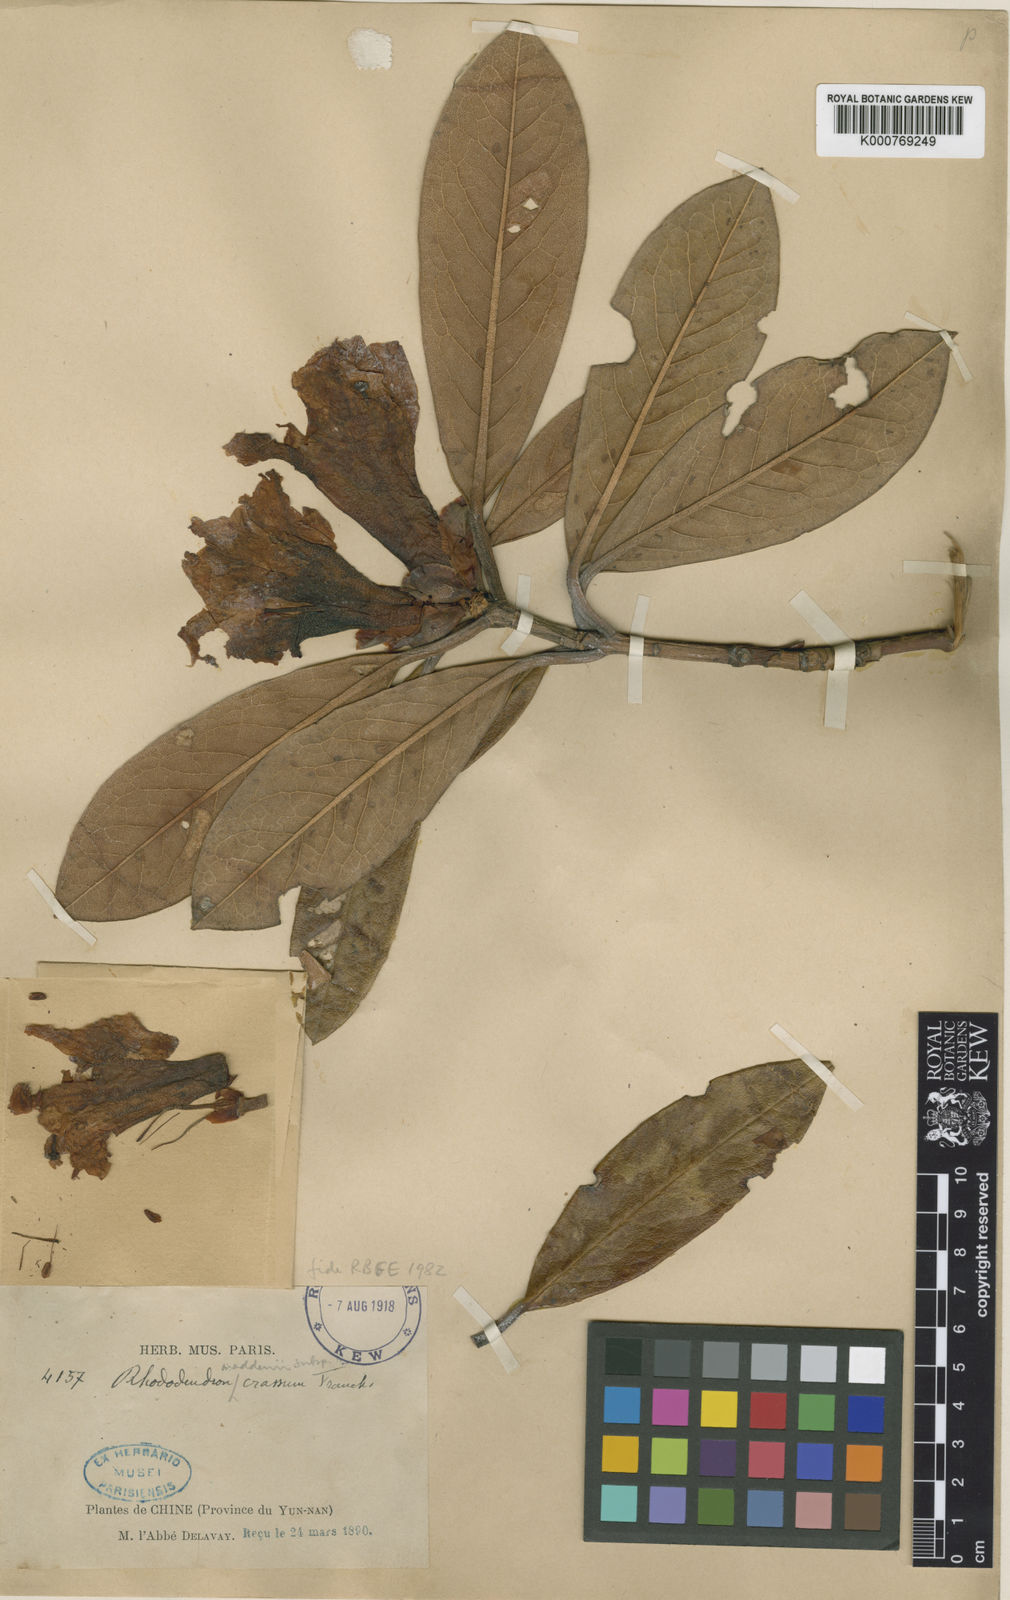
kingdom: Plantae
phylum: Tracheophyta
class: Magnoliopsida
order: Ericales
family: Ericaceae
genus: Rhododendron
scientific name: Rhododendron crassum
